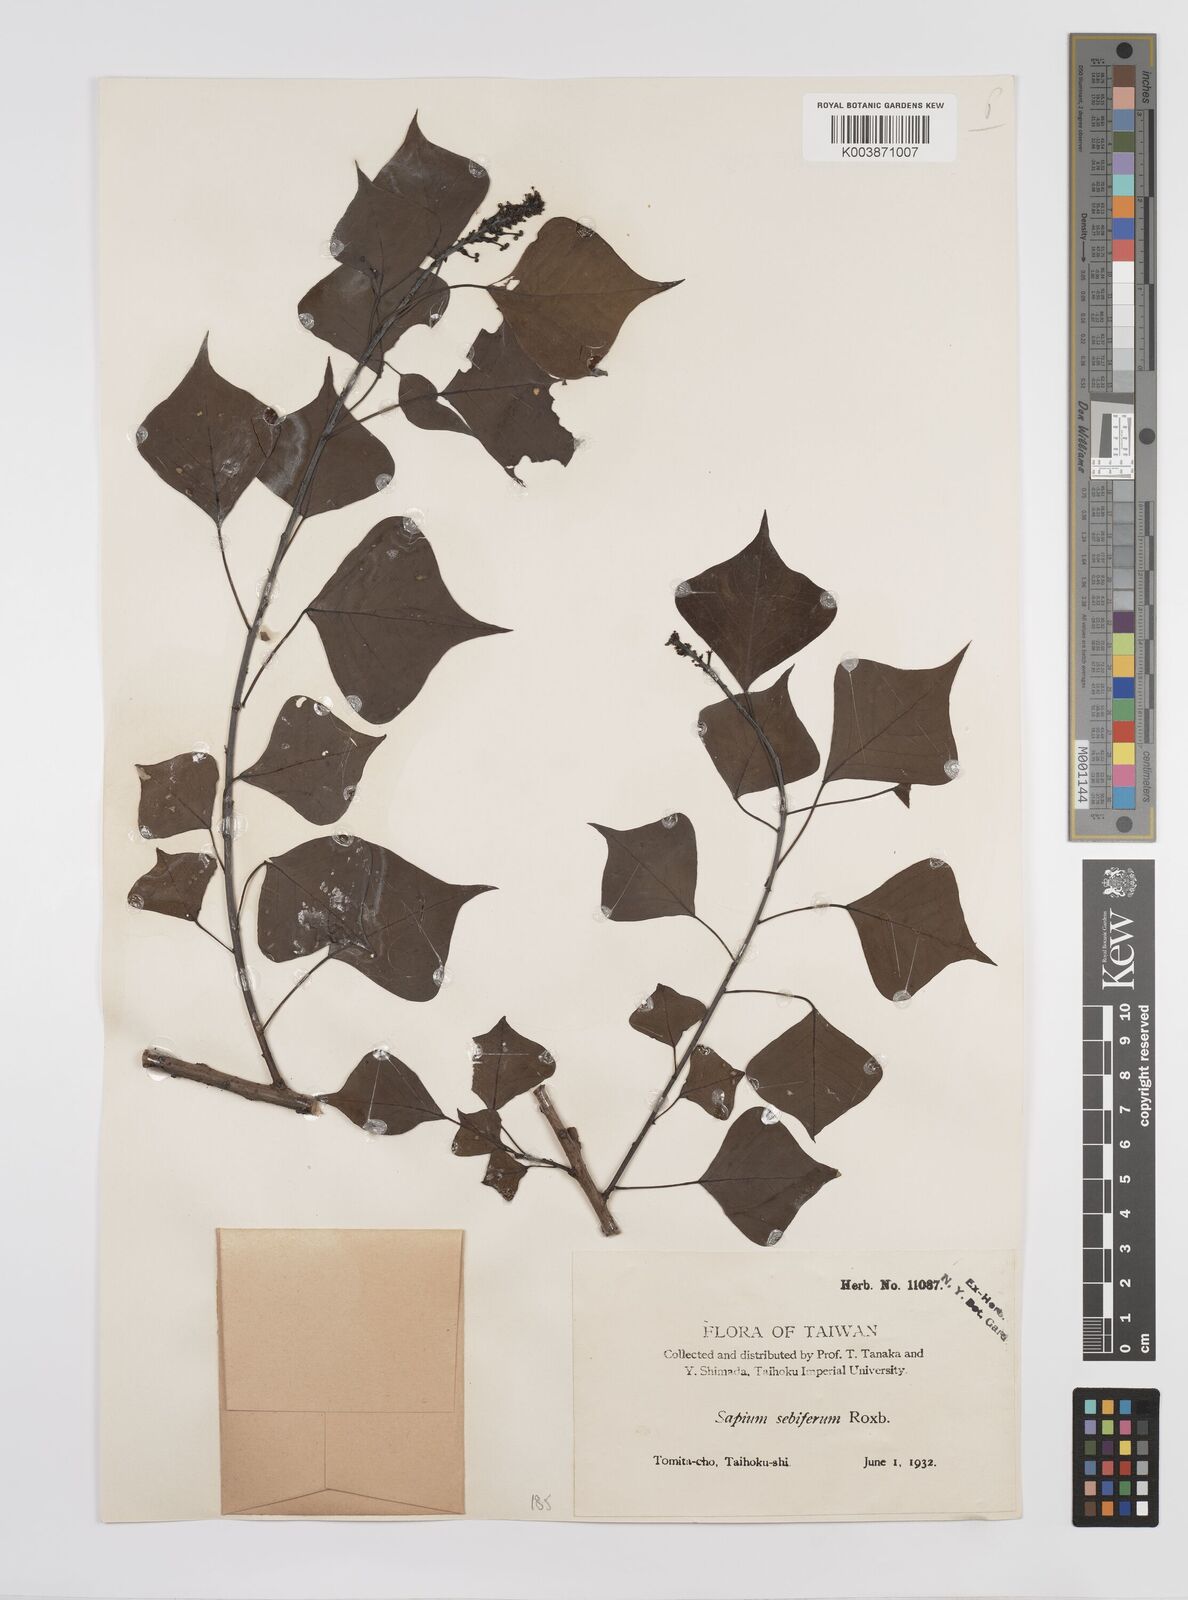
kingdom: Plantae
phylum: Tracheophyta
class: Magnoliopsida
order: Malpighiales
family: Euphorbiaceae
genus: Triadica
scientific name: Triadica sebifera
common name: Chinese tallow
